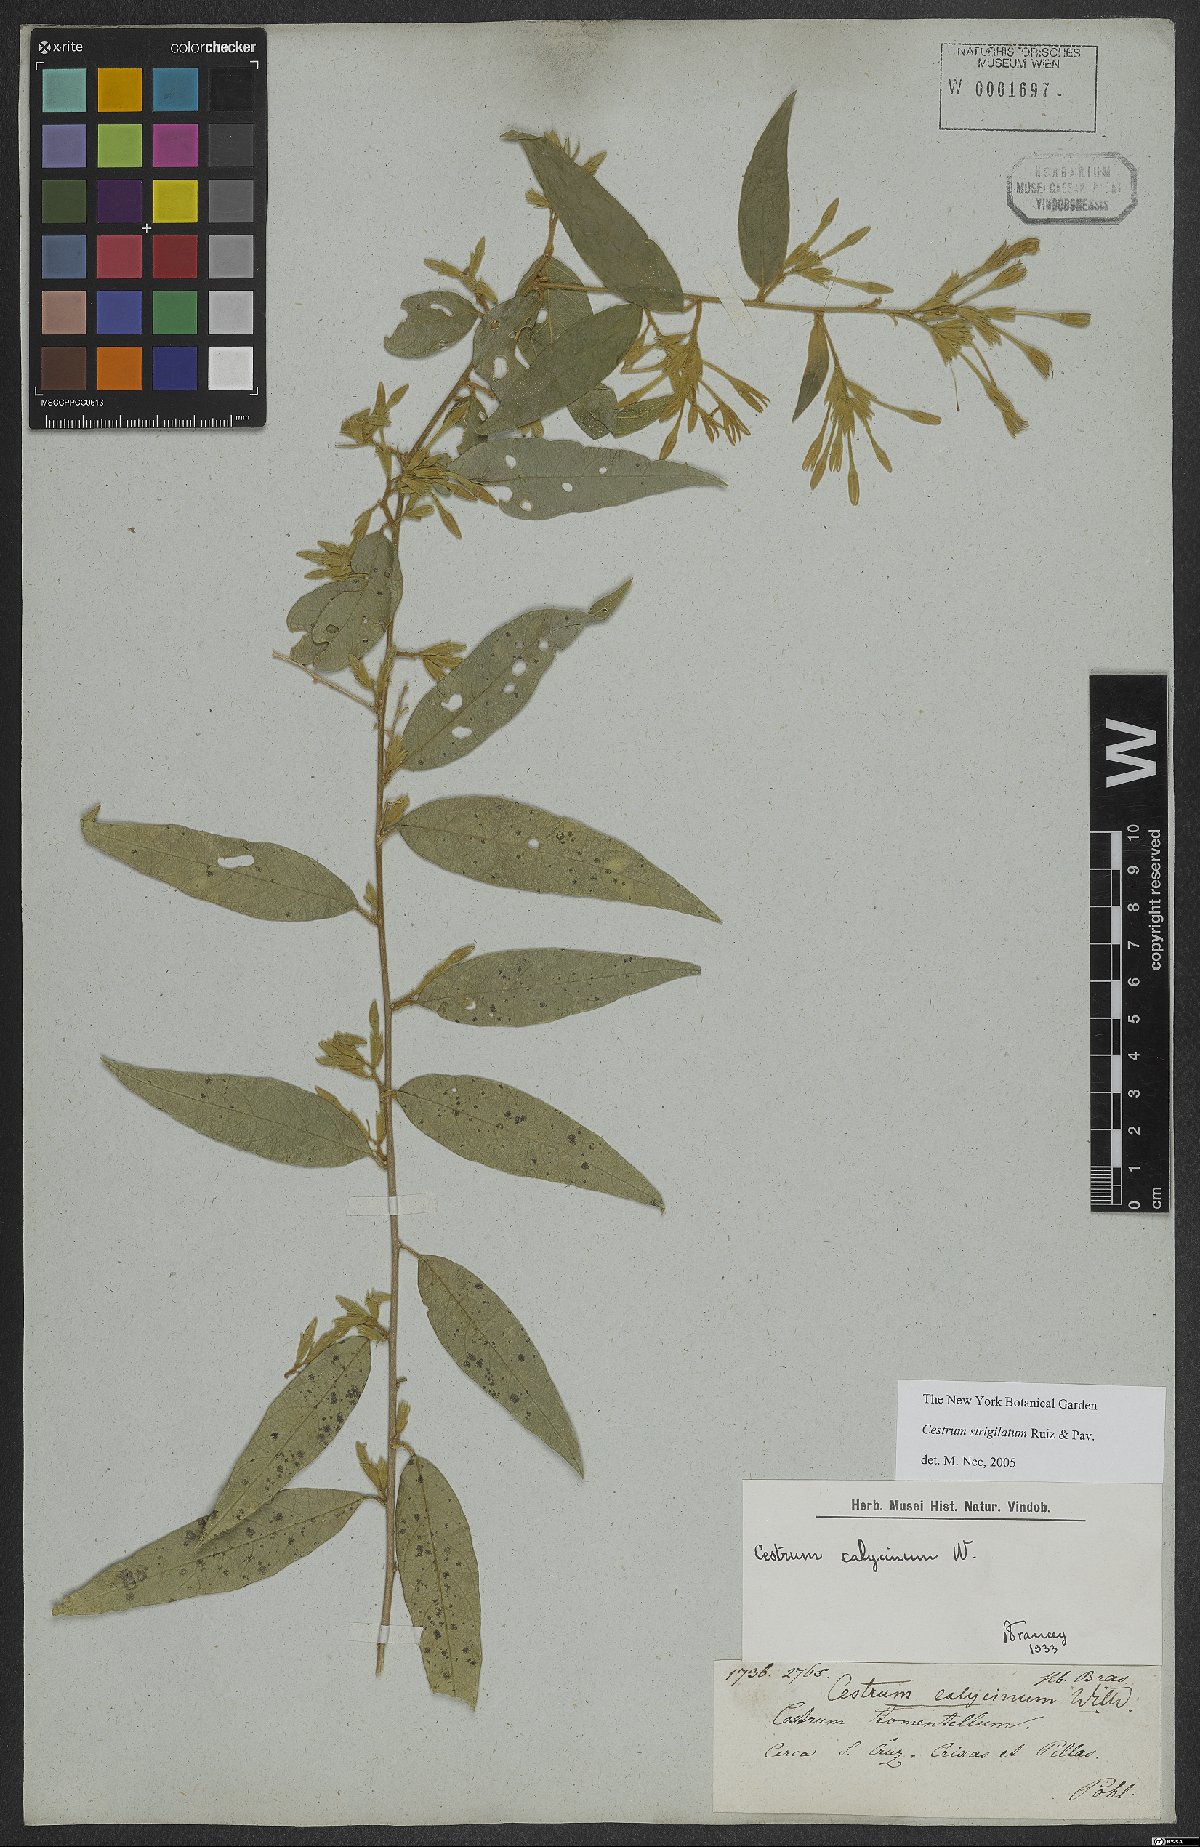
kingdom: Plantae
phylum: Tracheophyta
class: Magnoliopsida
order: Solanales
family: Solanaceae
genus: Cestrum
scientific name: Cestrum strigillatum
